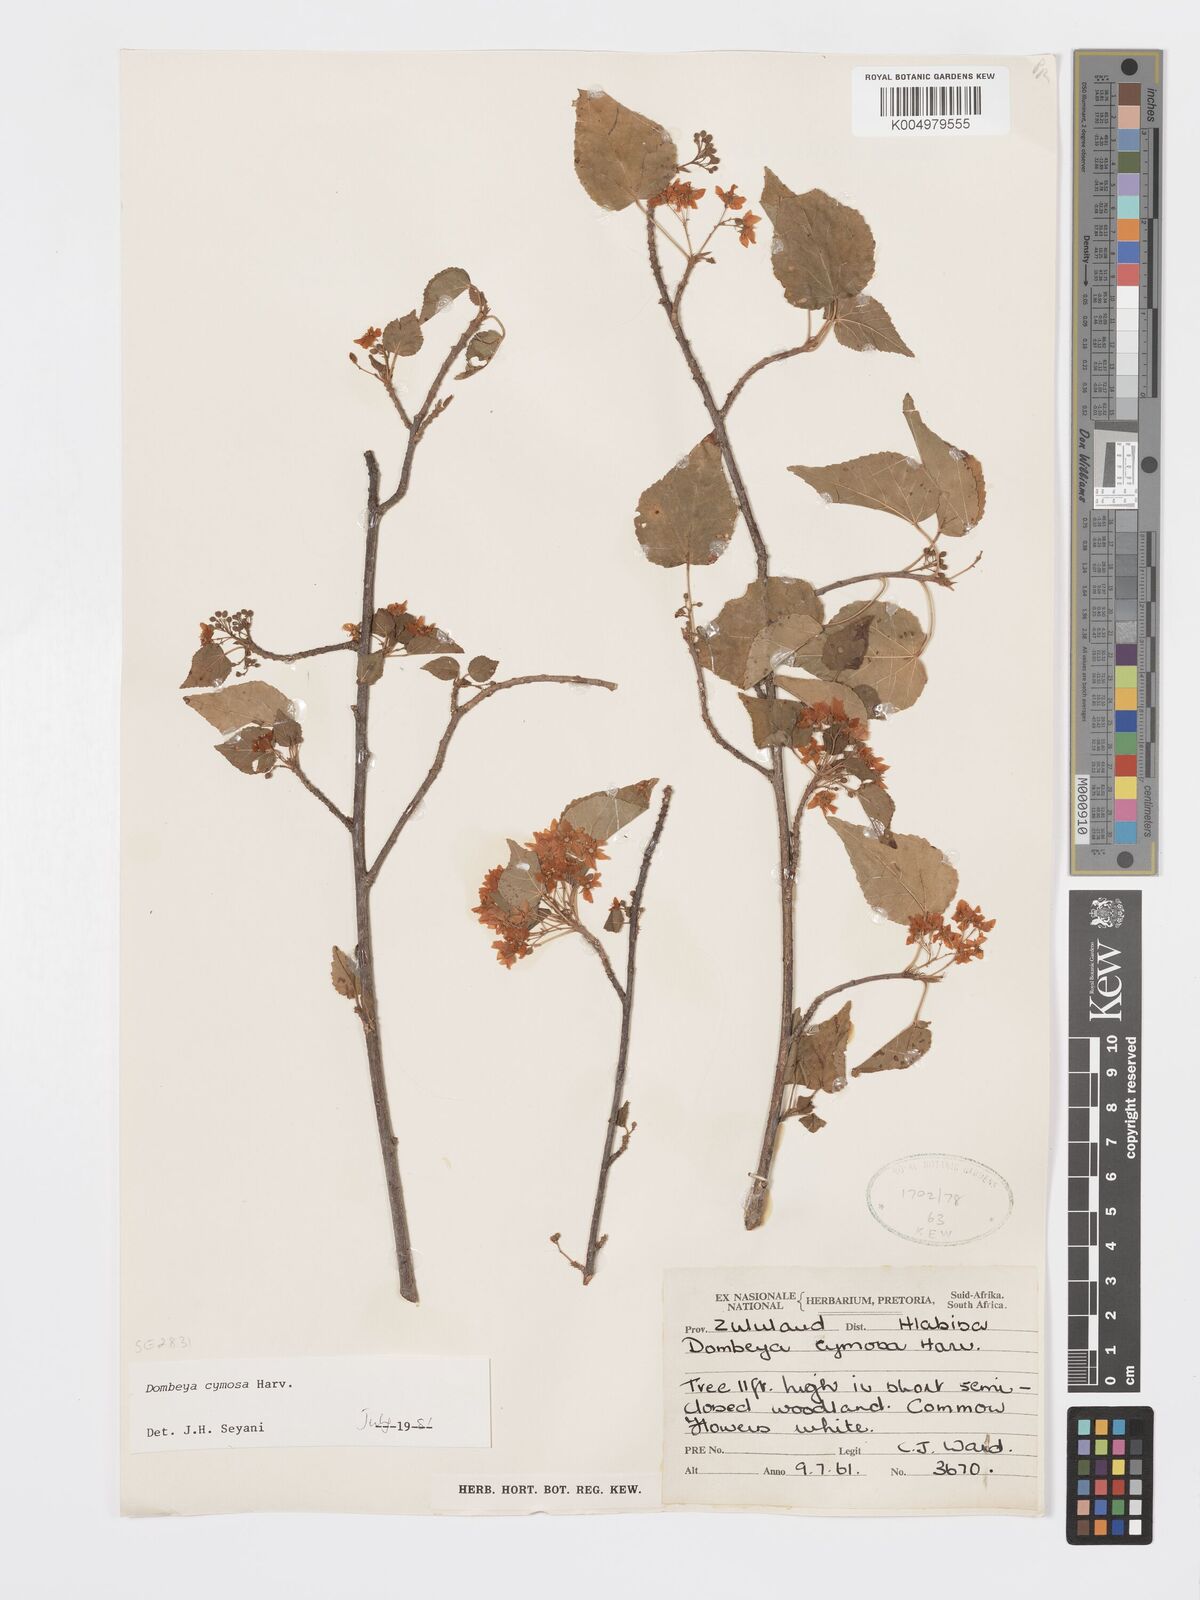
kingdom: Plantae
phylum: Tracheophyta
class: Magnoliopsida
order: Malvales
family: Malvaceae
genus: Dombeya
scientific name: Dombeya cymosa
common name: Hairless dombeya
